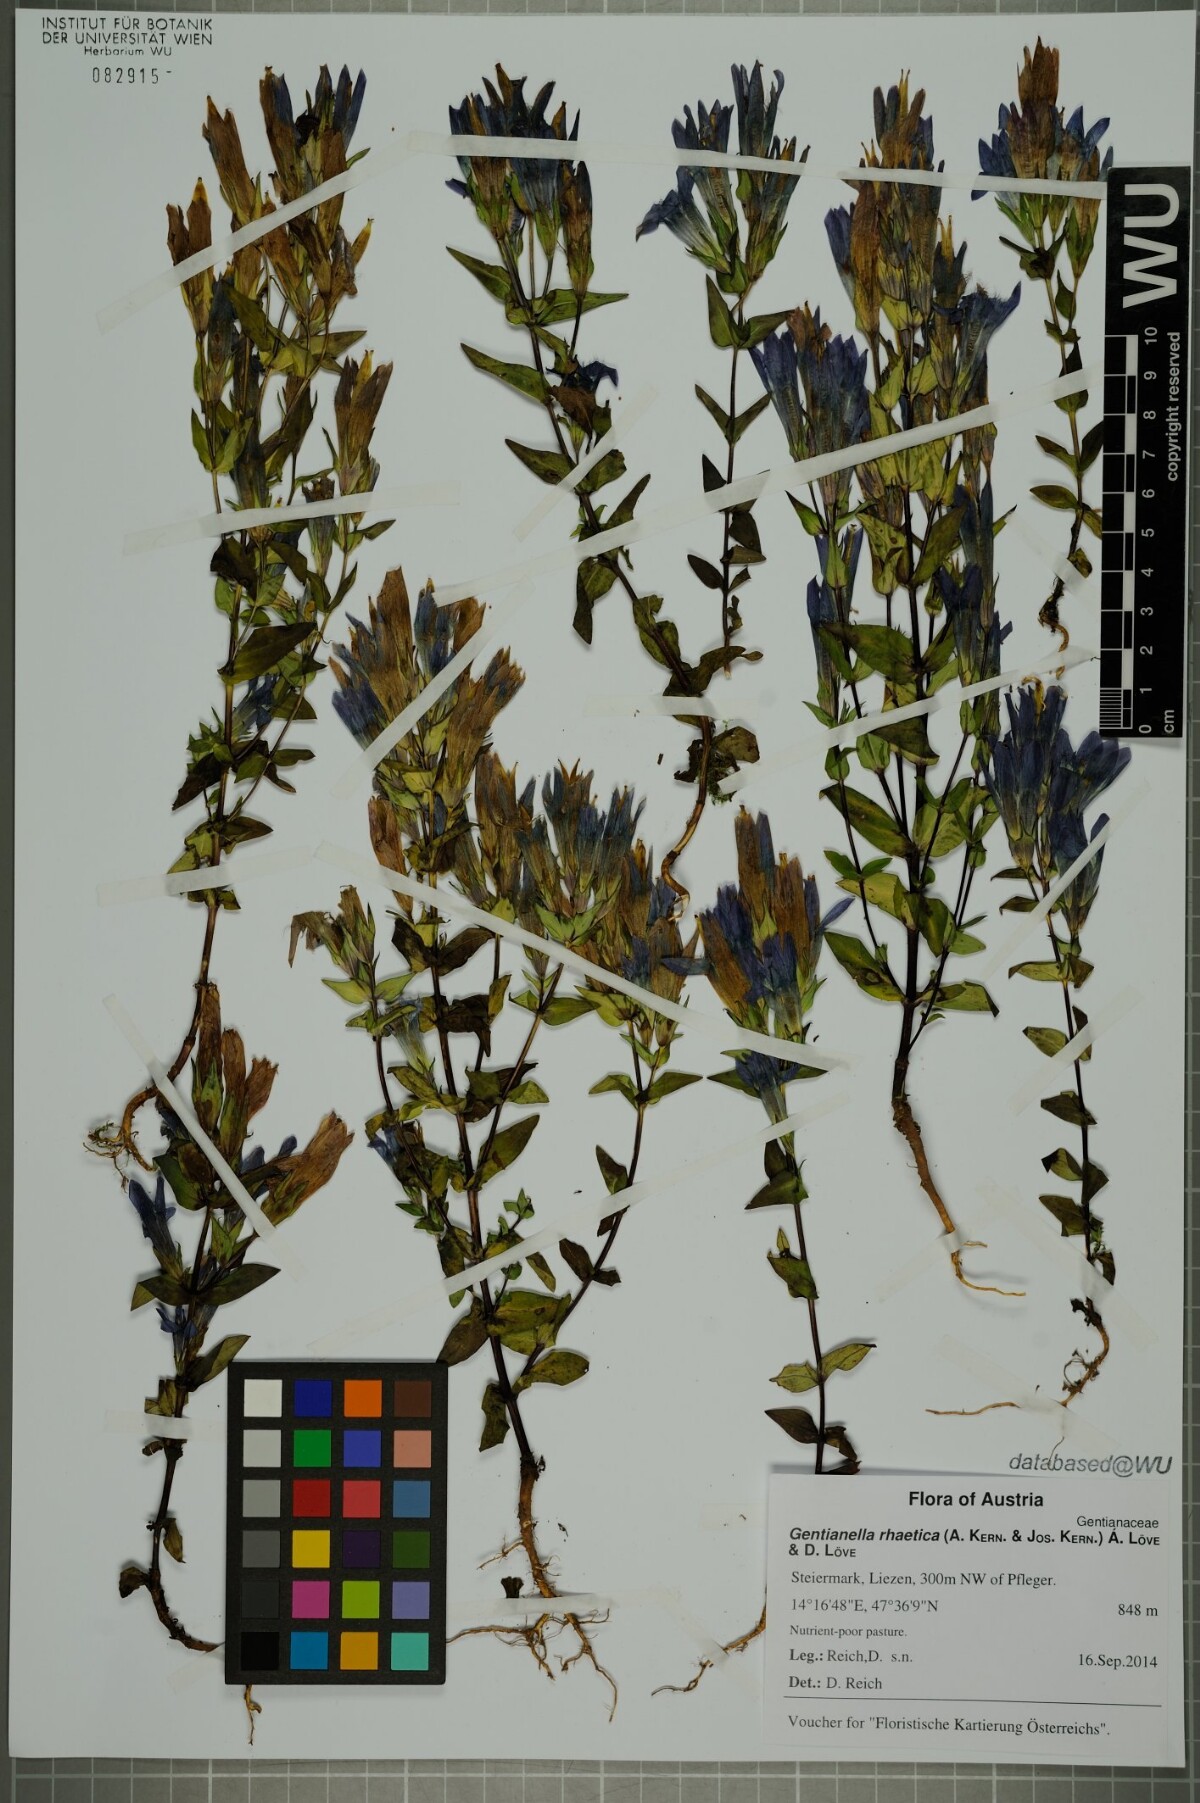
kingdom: Plantae
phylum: Tracheophyta
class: Magnoliopsida
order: Gentianales
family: Gentianaceae
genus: Gentianella
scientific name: Gentianella rhaetica
